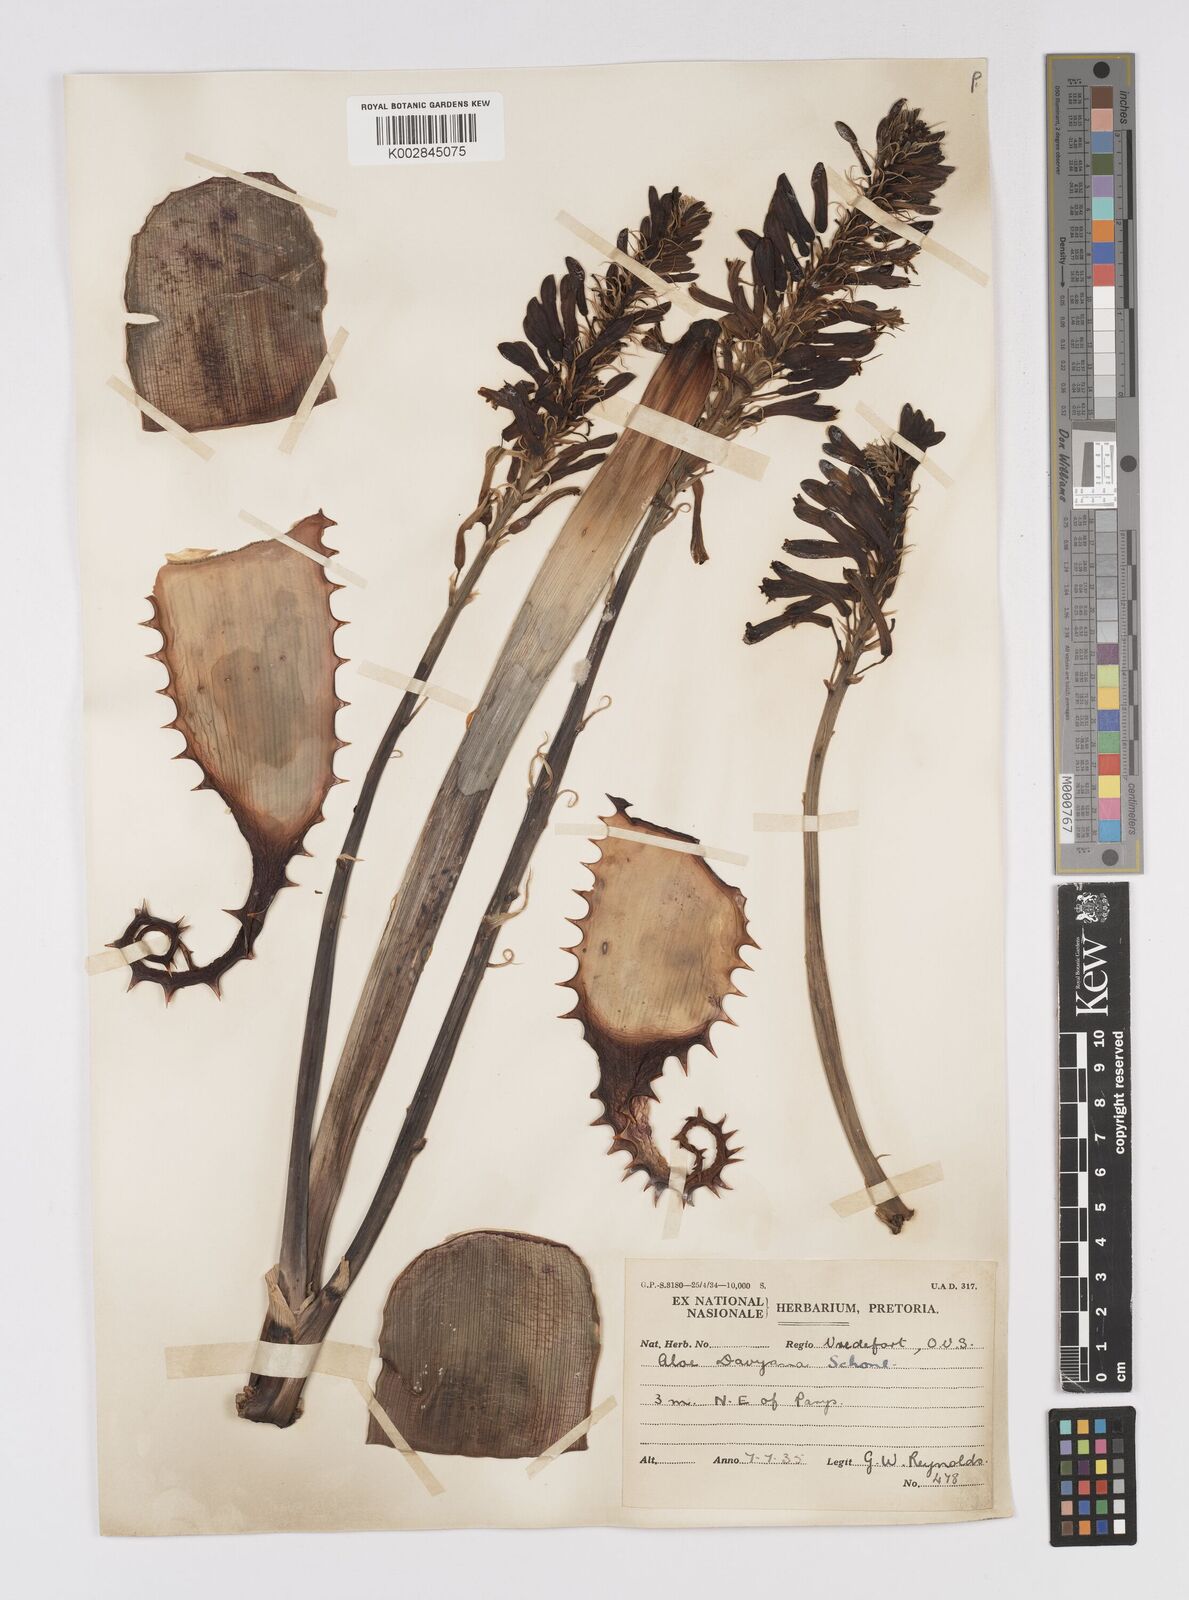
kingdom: Plantae
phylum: Tracheophyta
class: Liliopsida
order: Asparagales
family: Asphodelaceae
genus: Aloe
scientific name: Aloe davyana
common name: Spotted aloe
